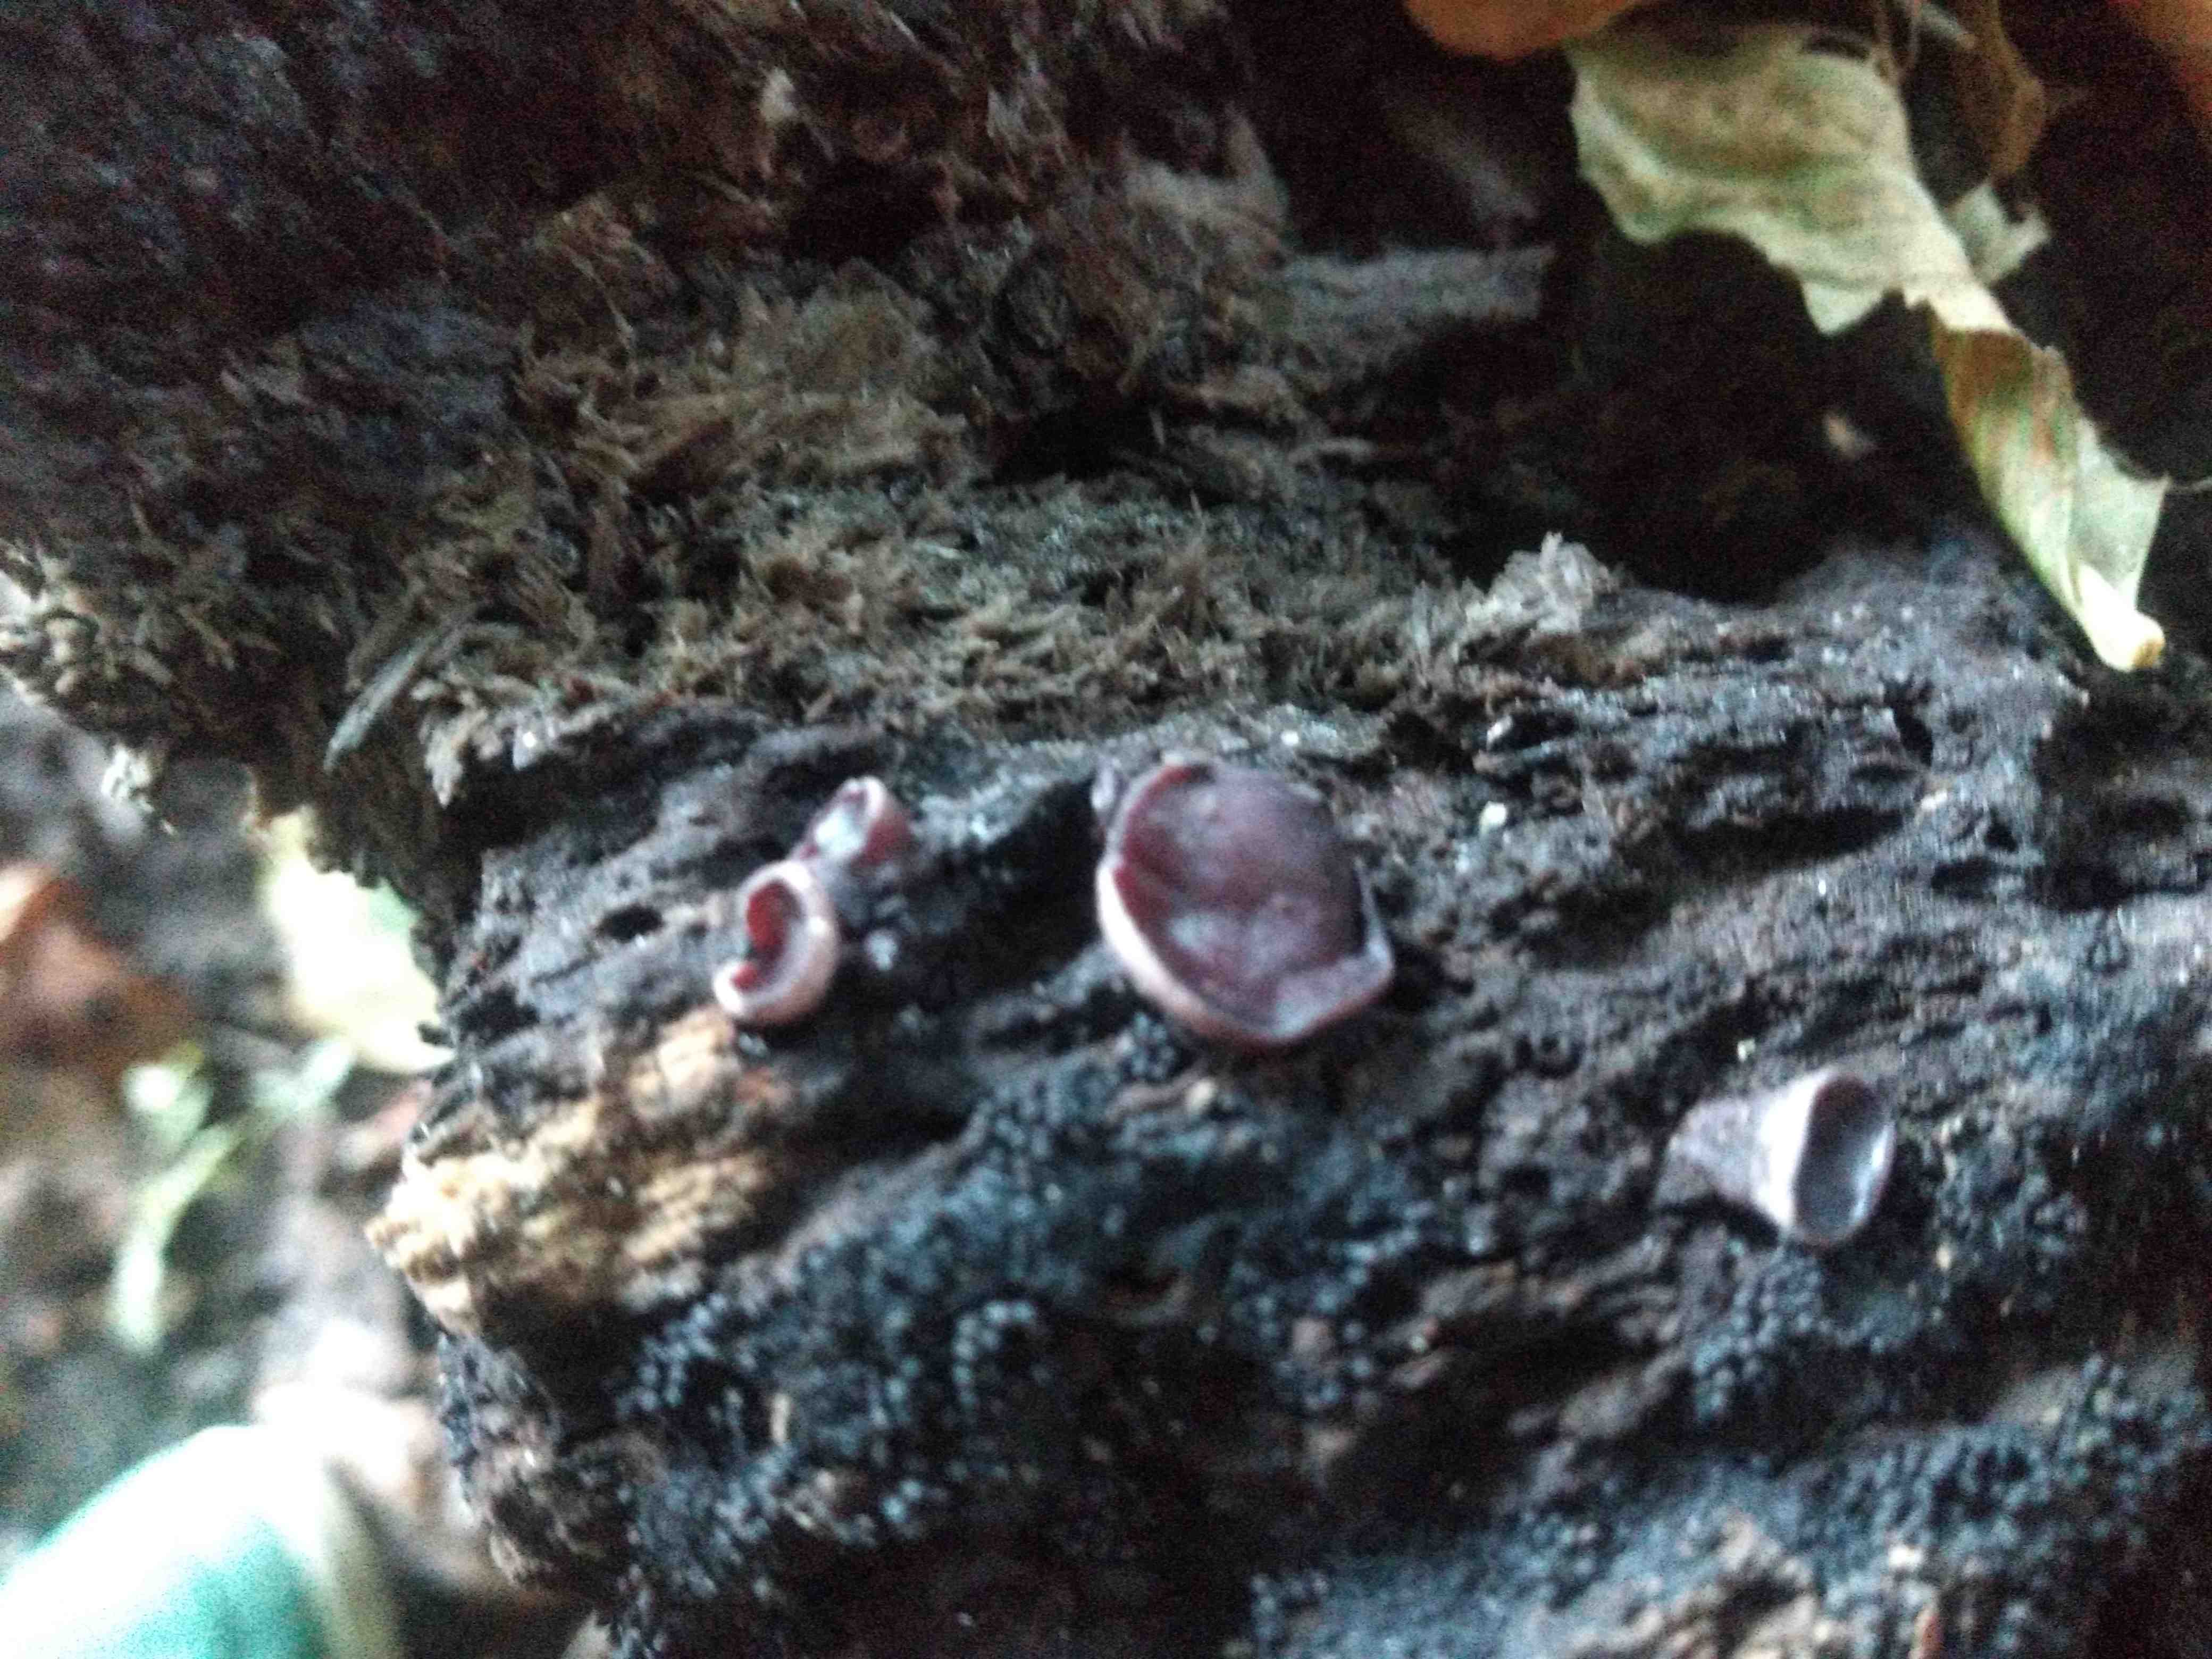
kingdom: Fungi
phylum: Ascomycota
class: Leotiomycetes
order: Helotiales
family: Gelatinodiscaceae
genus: Ascocoryne
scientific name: Ascocoryne cylichnium
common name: stor sejskive
